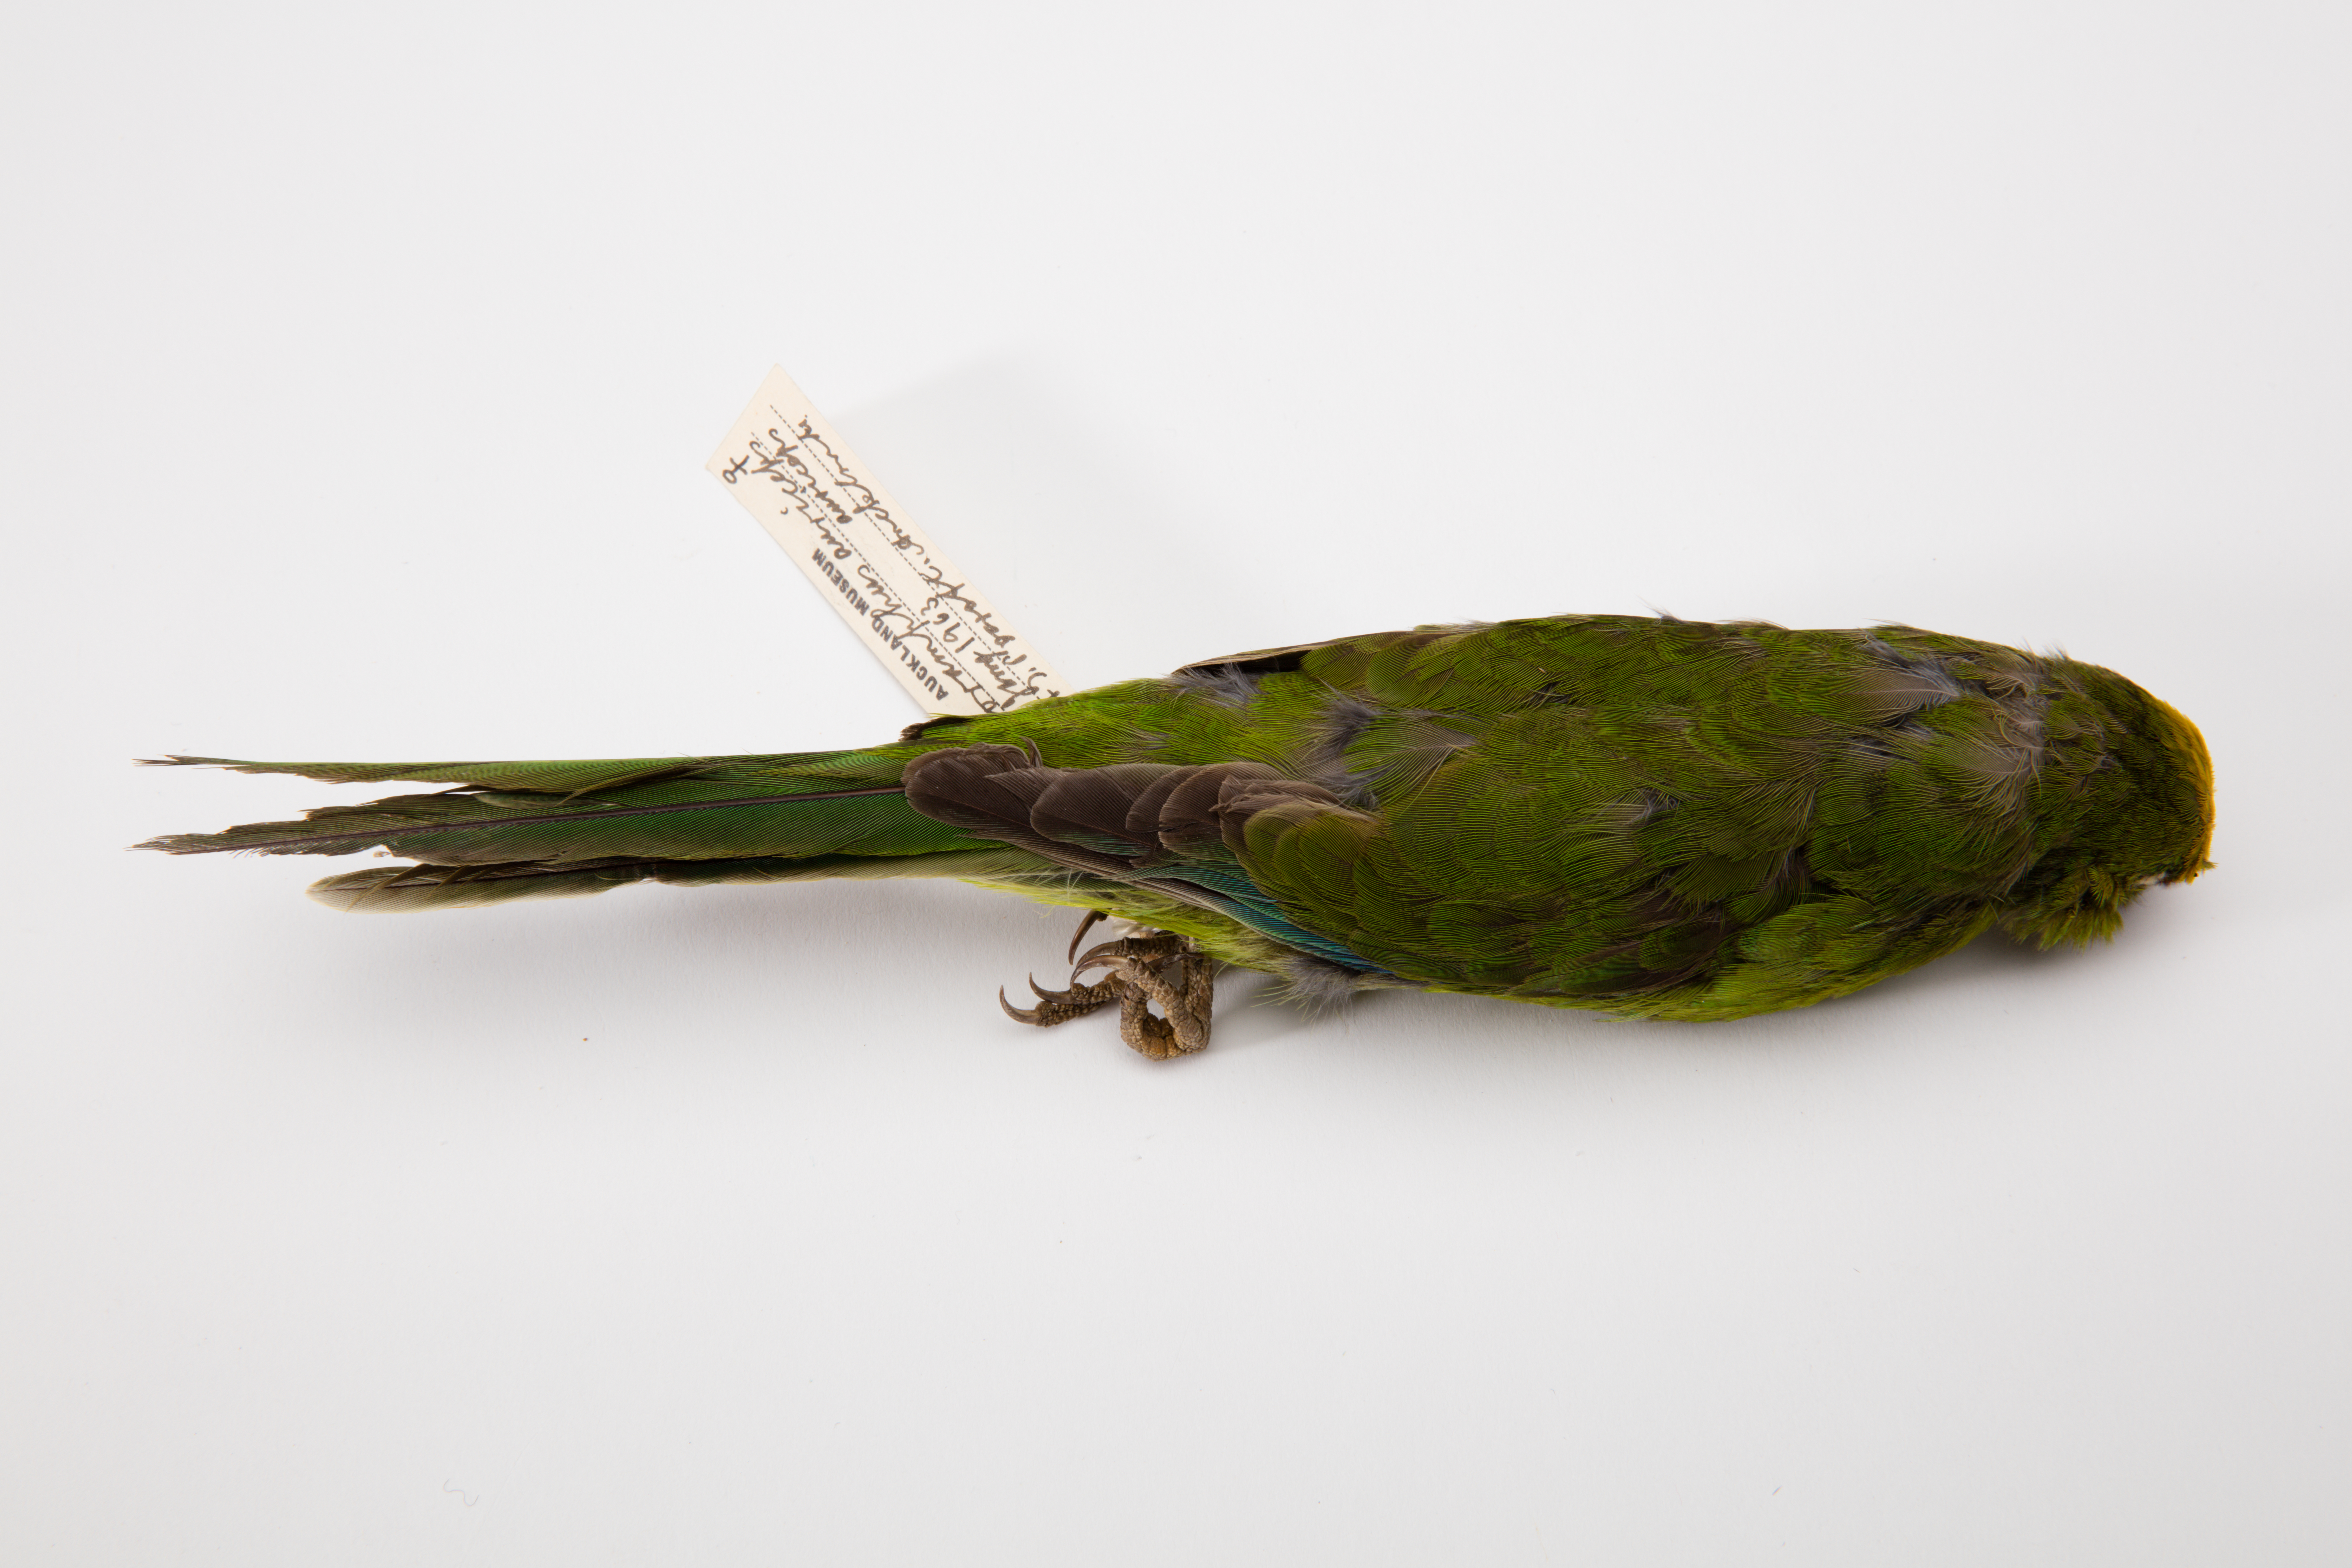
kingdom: Animalia
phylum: Chordata
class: Aves
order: Psittaciformes
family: Psittacidae
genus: Cyanoramphus
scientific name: Cyanoramphus auriceps
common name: Yellow-crowned parakeet
